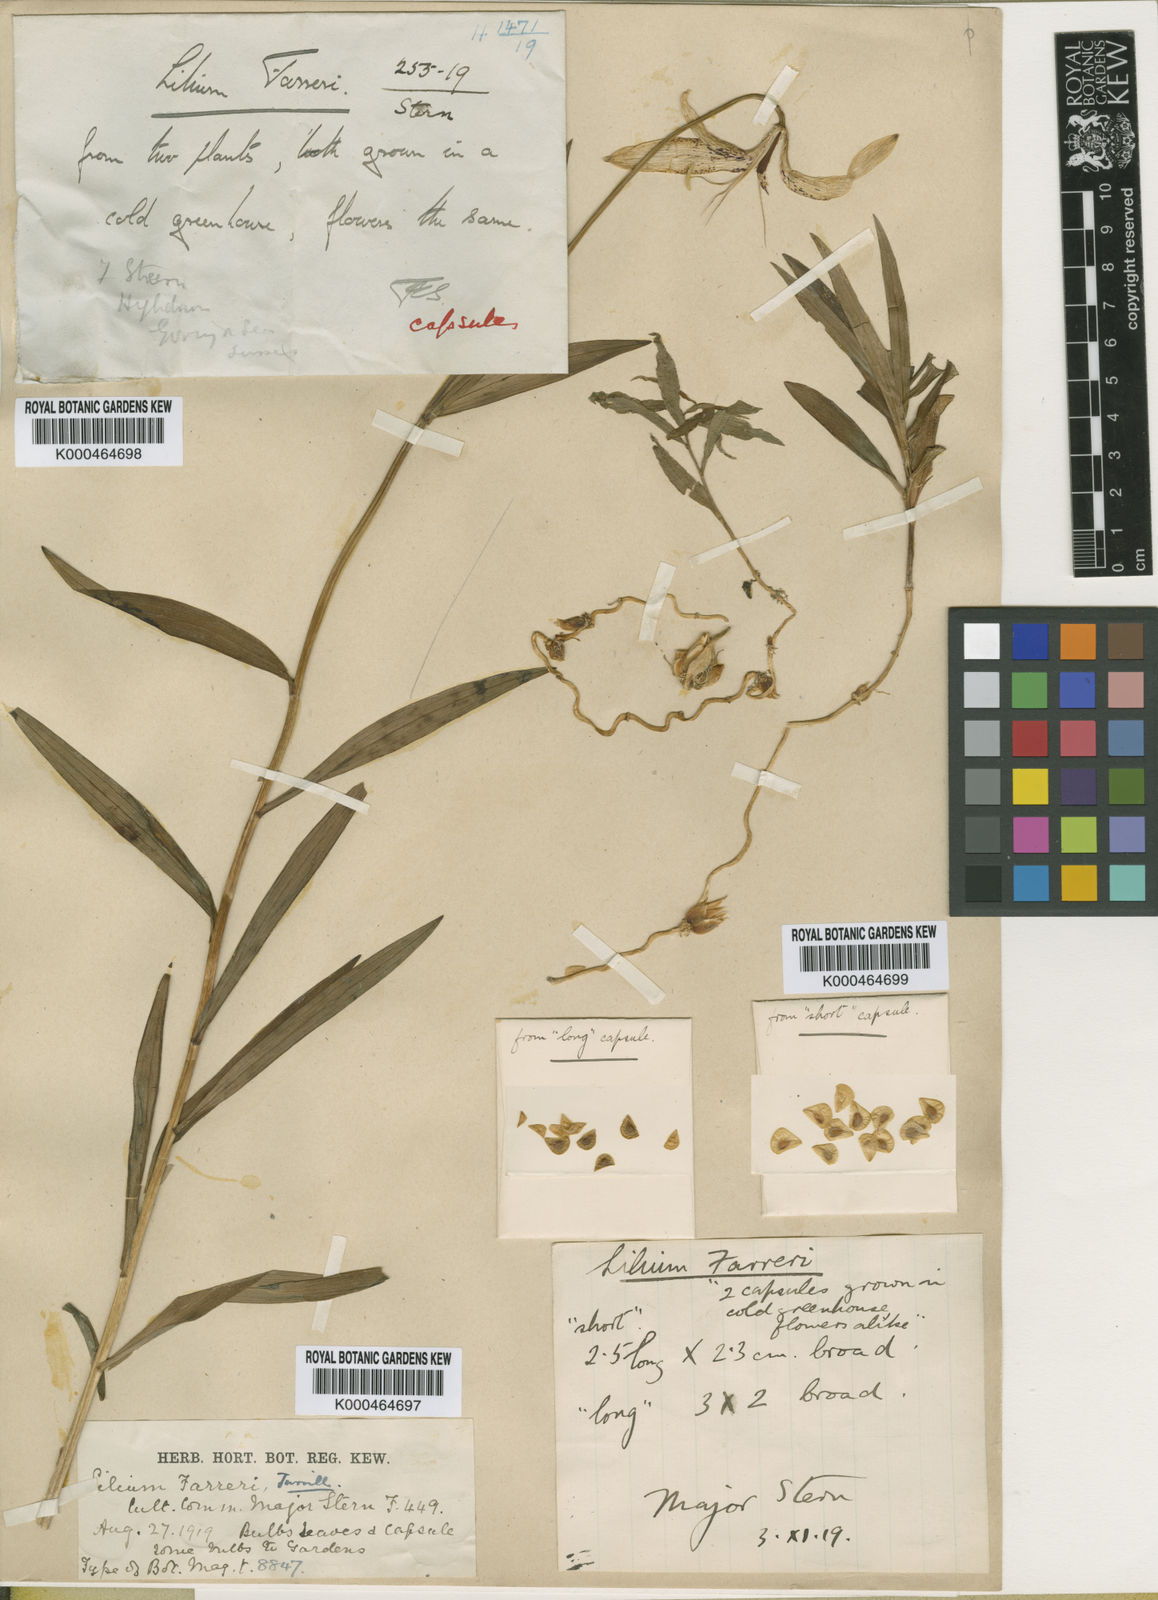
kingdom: Plantae
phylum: Tracheophyta
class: Liliopsida
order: Liliales
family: Liliaceae
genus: Lilium
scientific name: Lilium duchartrei
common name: Duchartre lily
